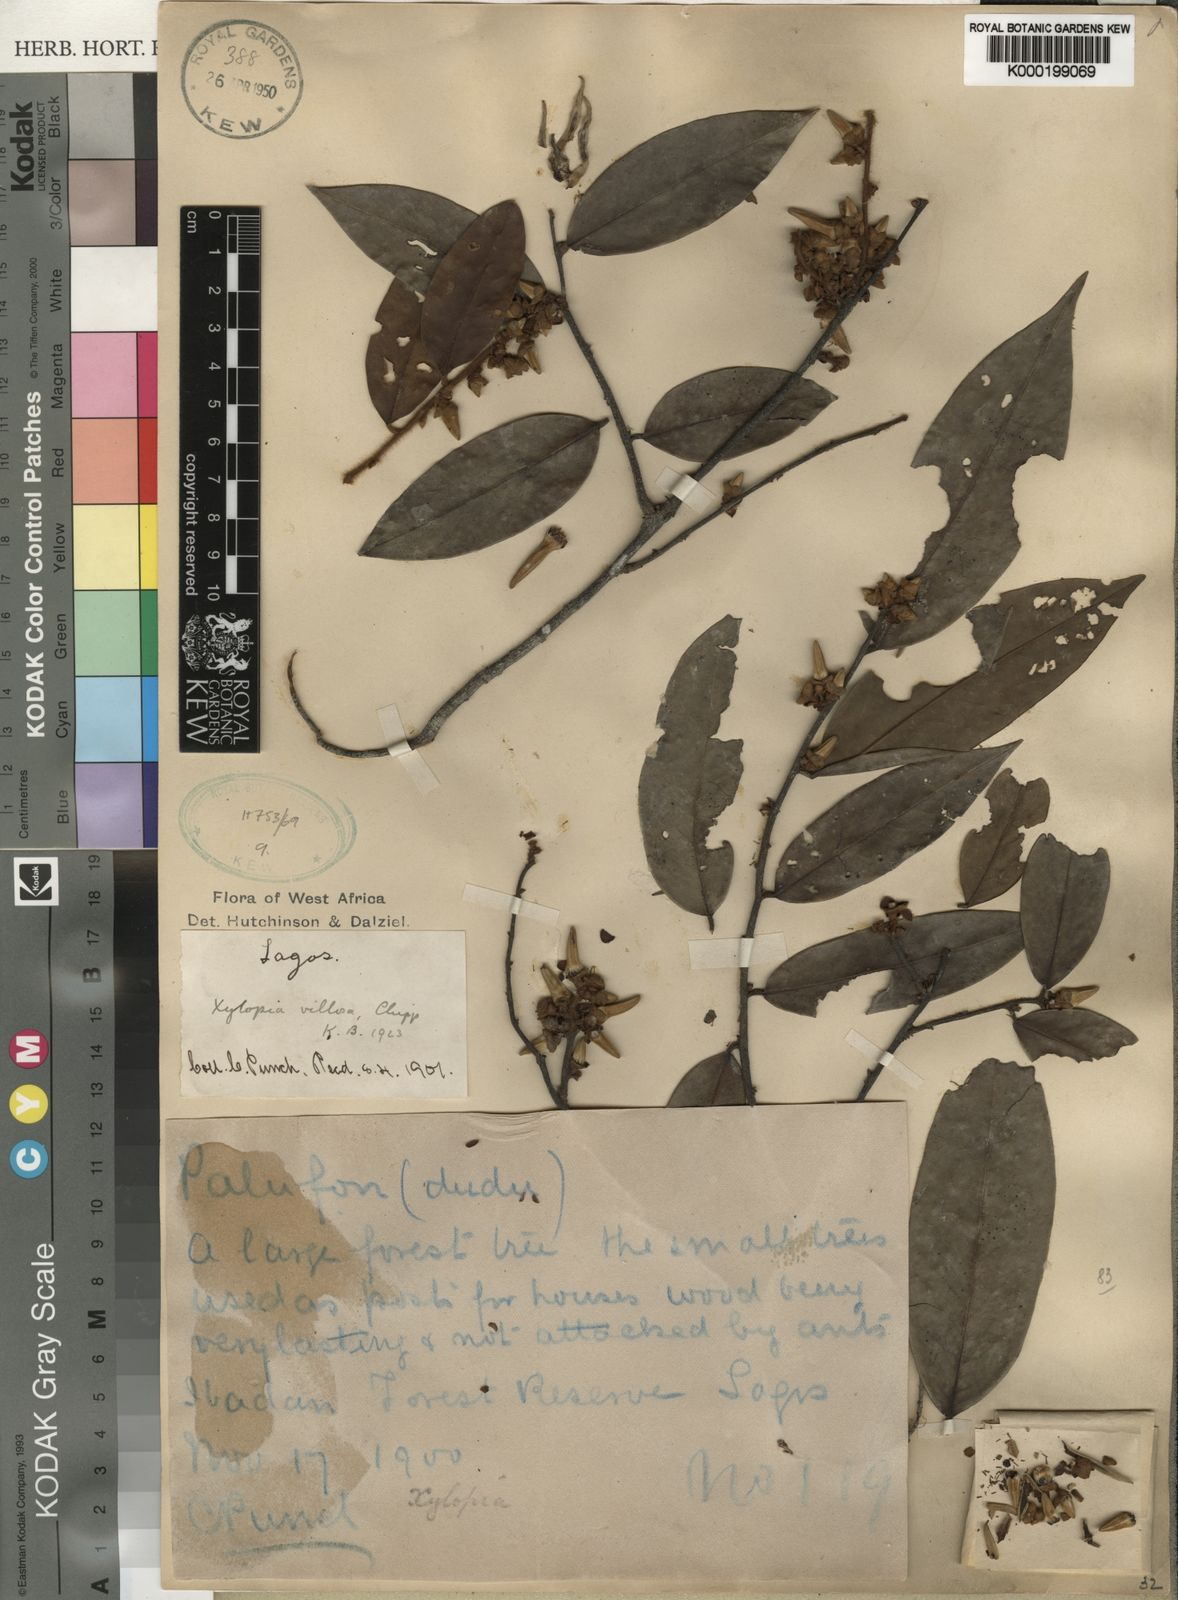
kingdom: Plantae
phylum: Tracheophyta
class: Magnoliopsida
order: Magnoliales
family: Annonaceae
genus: Xylopia
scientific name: Xylopia villosa
